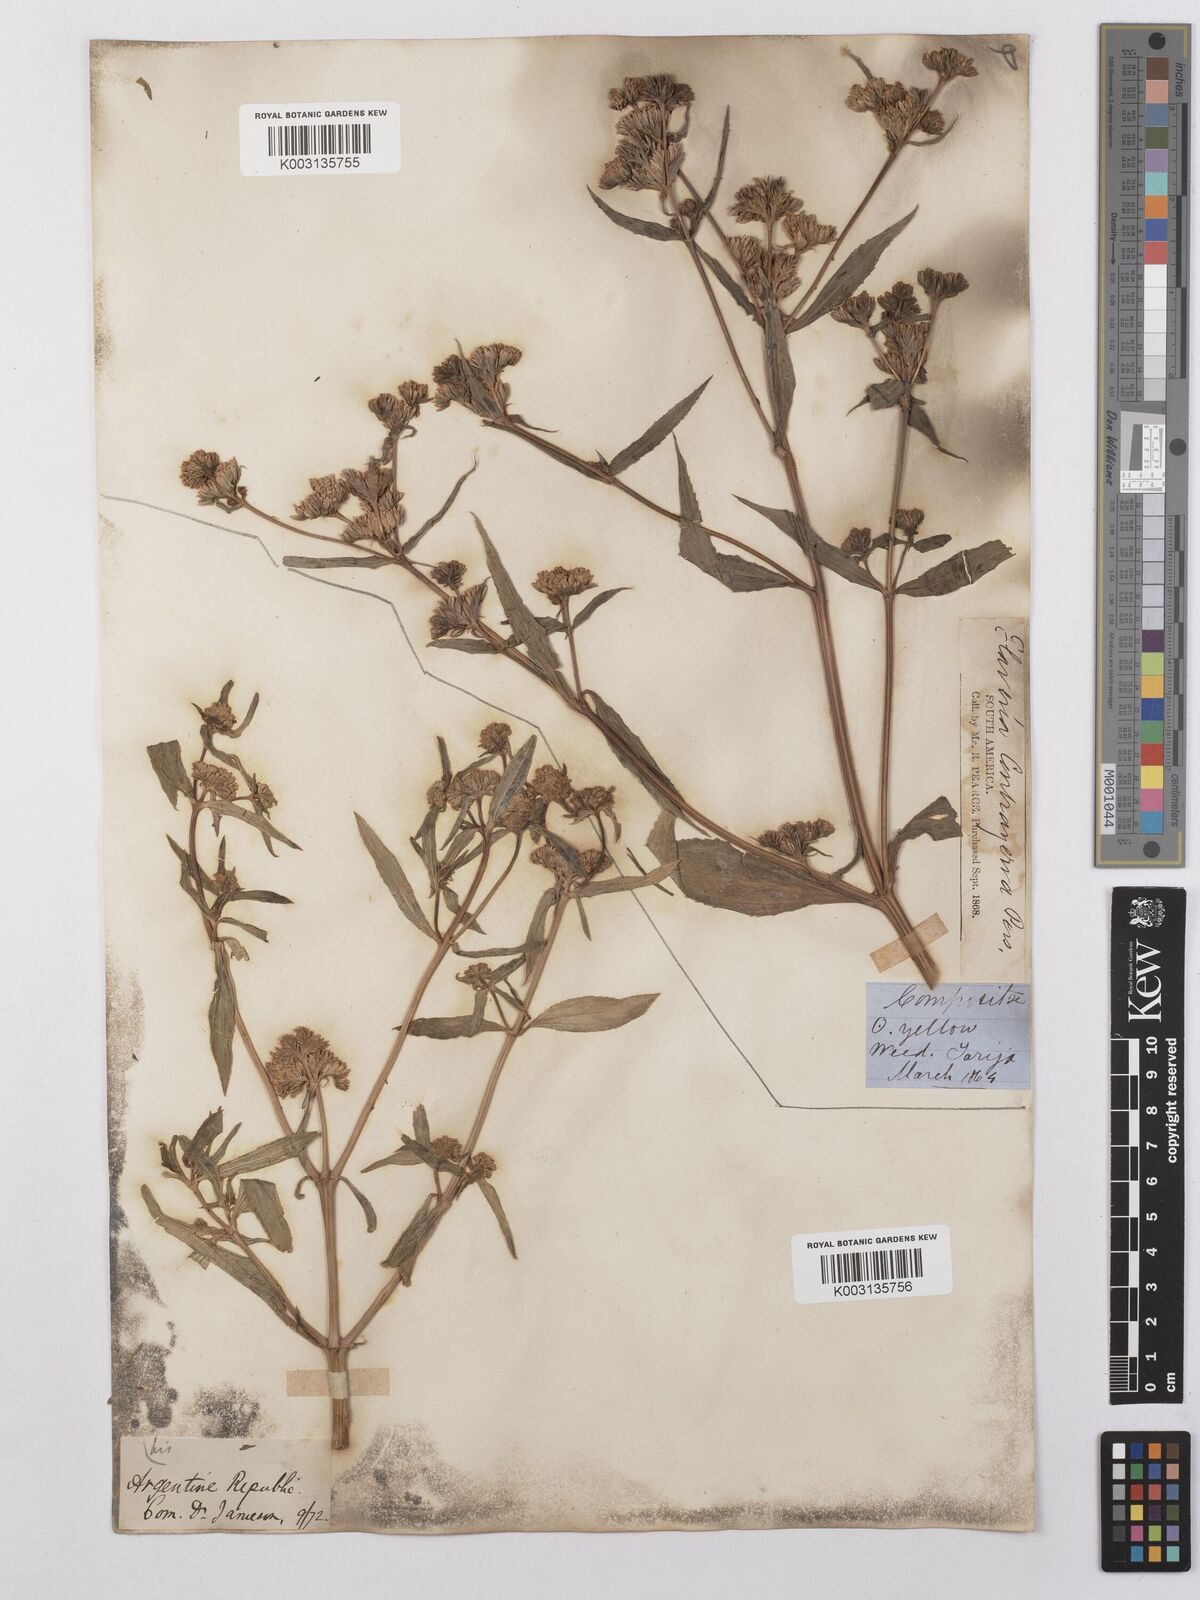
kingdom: Plantae
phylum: Tracheophyta
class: Magnoliopsida
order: Asterales
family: Asteraceae
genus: Flaveria
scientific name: Flaveria bidentis
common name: Coastal plain yellowtops
